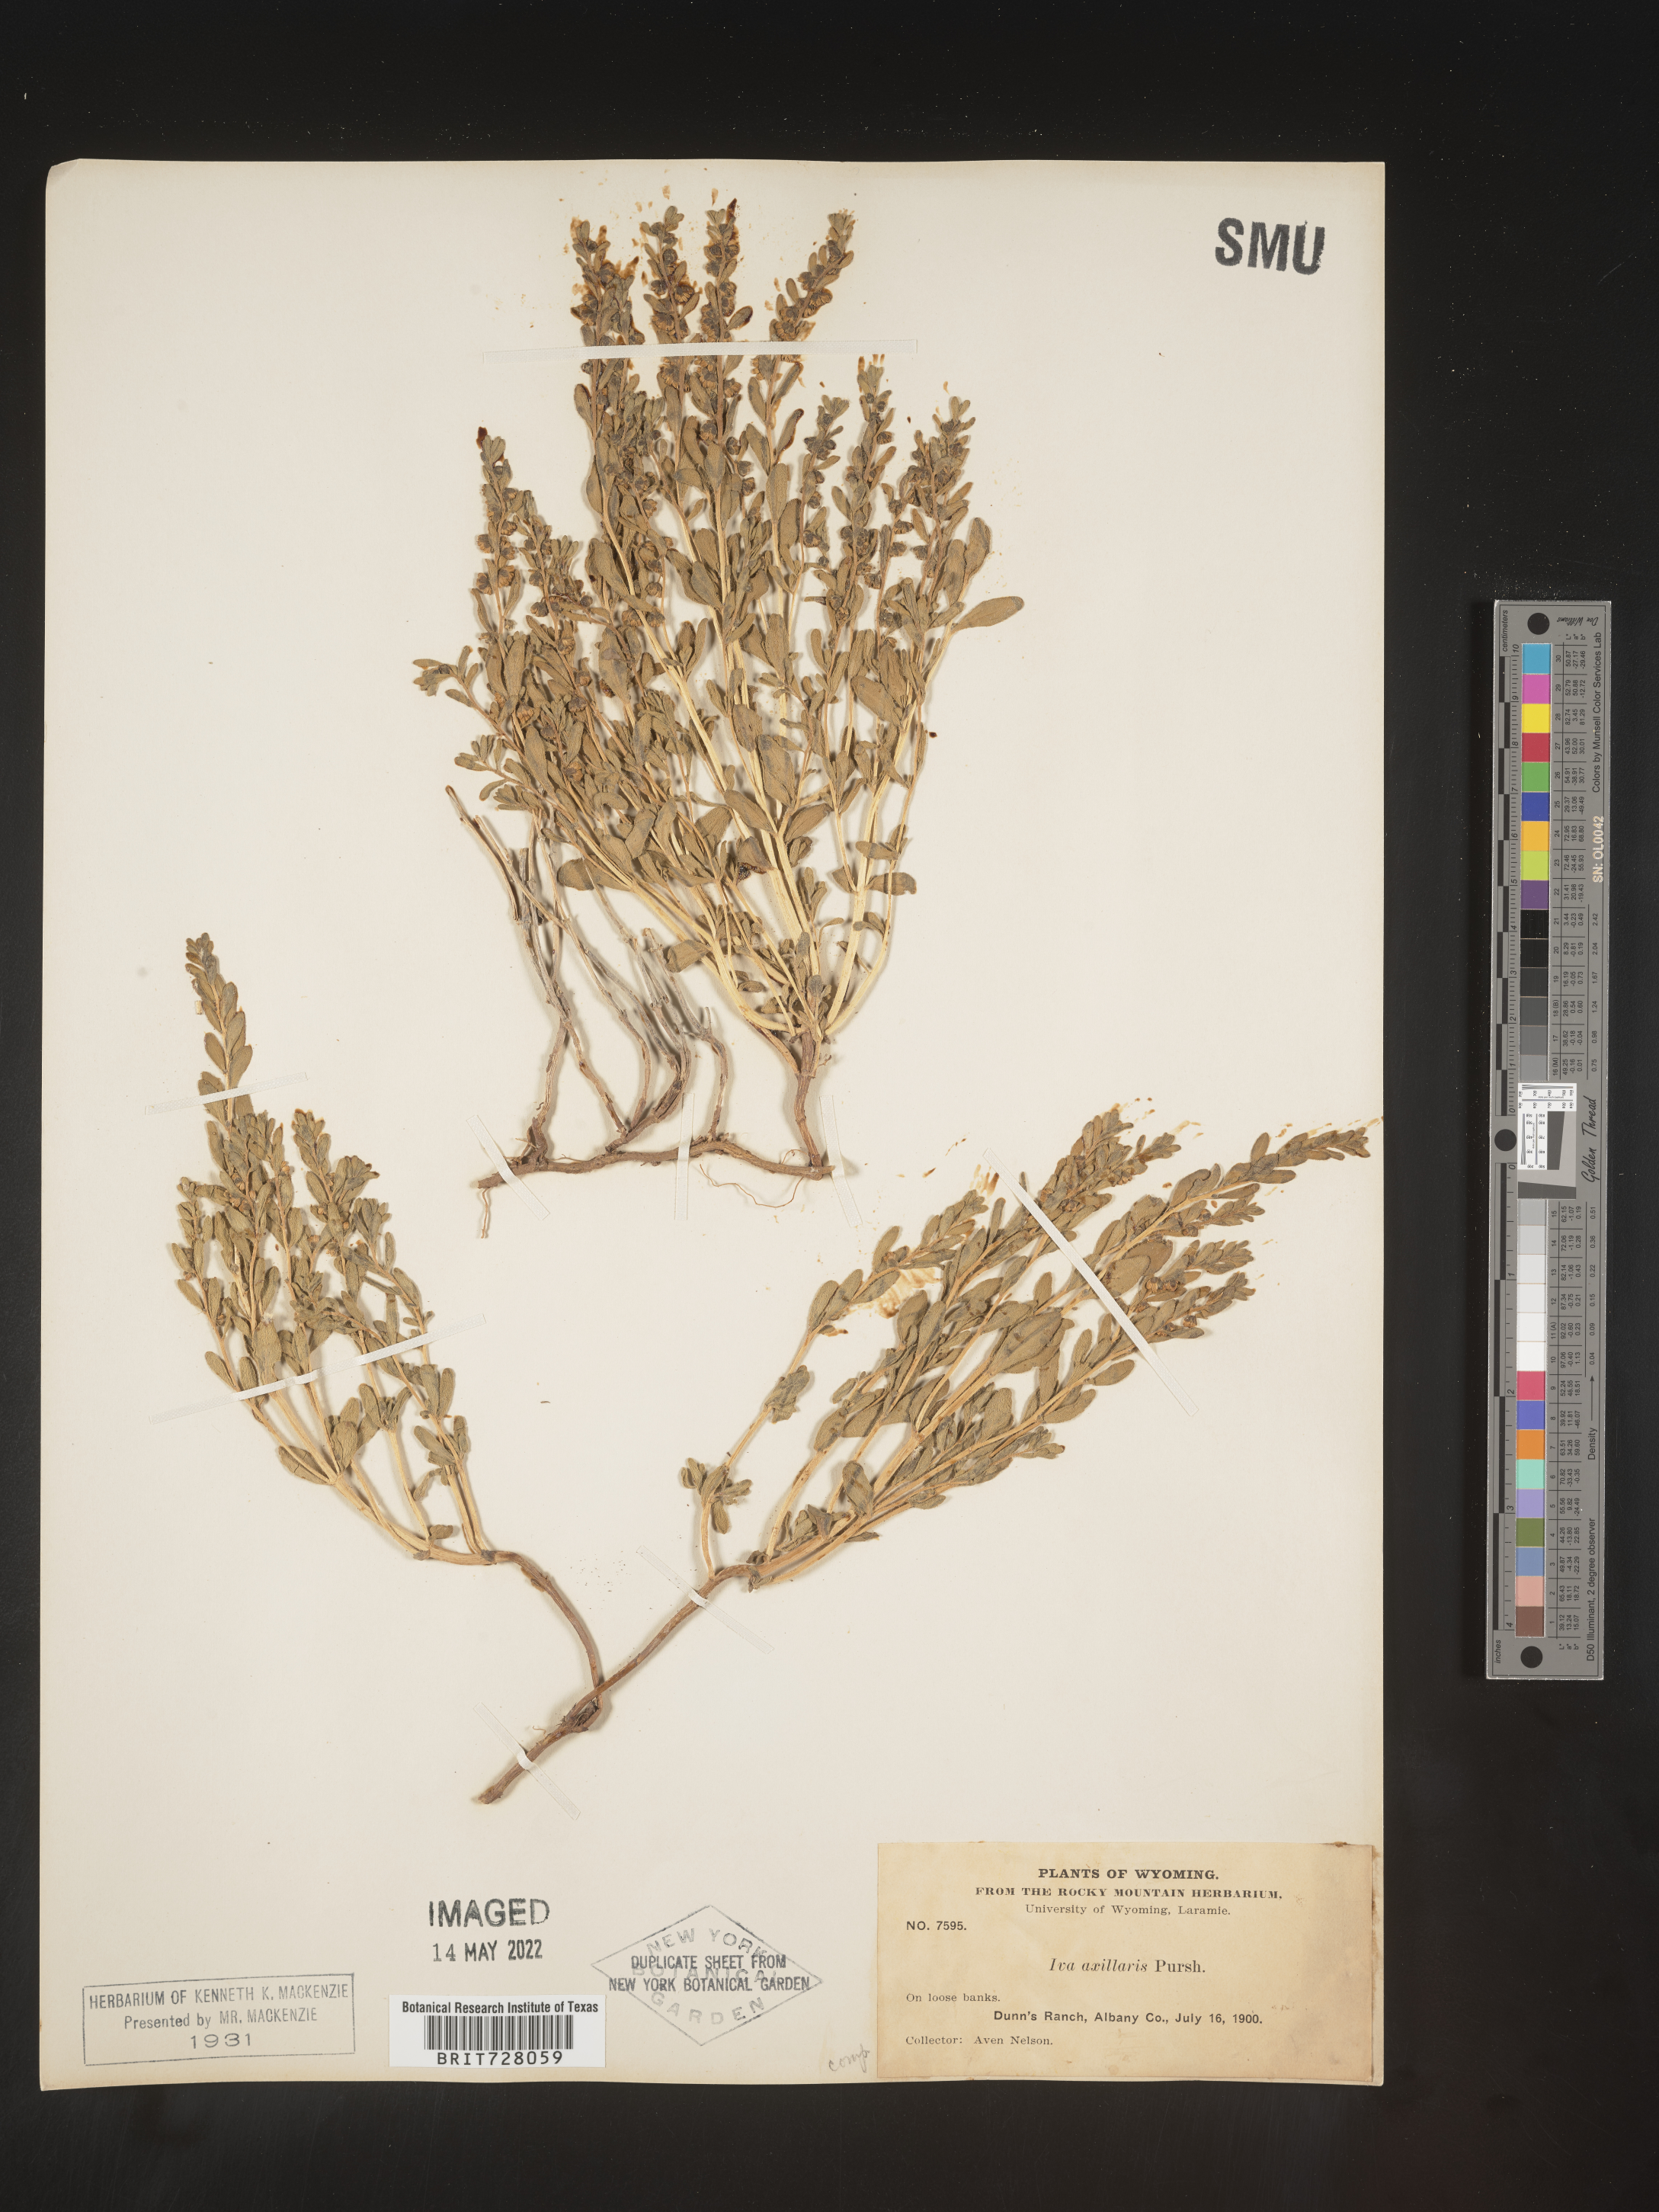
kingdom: Plantae
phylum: Tracheophyta
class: Magnoliopsida
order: Asterales
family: Asteraceae
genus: Iva
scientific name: Iva axillaris
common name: Poverty sumpweed
